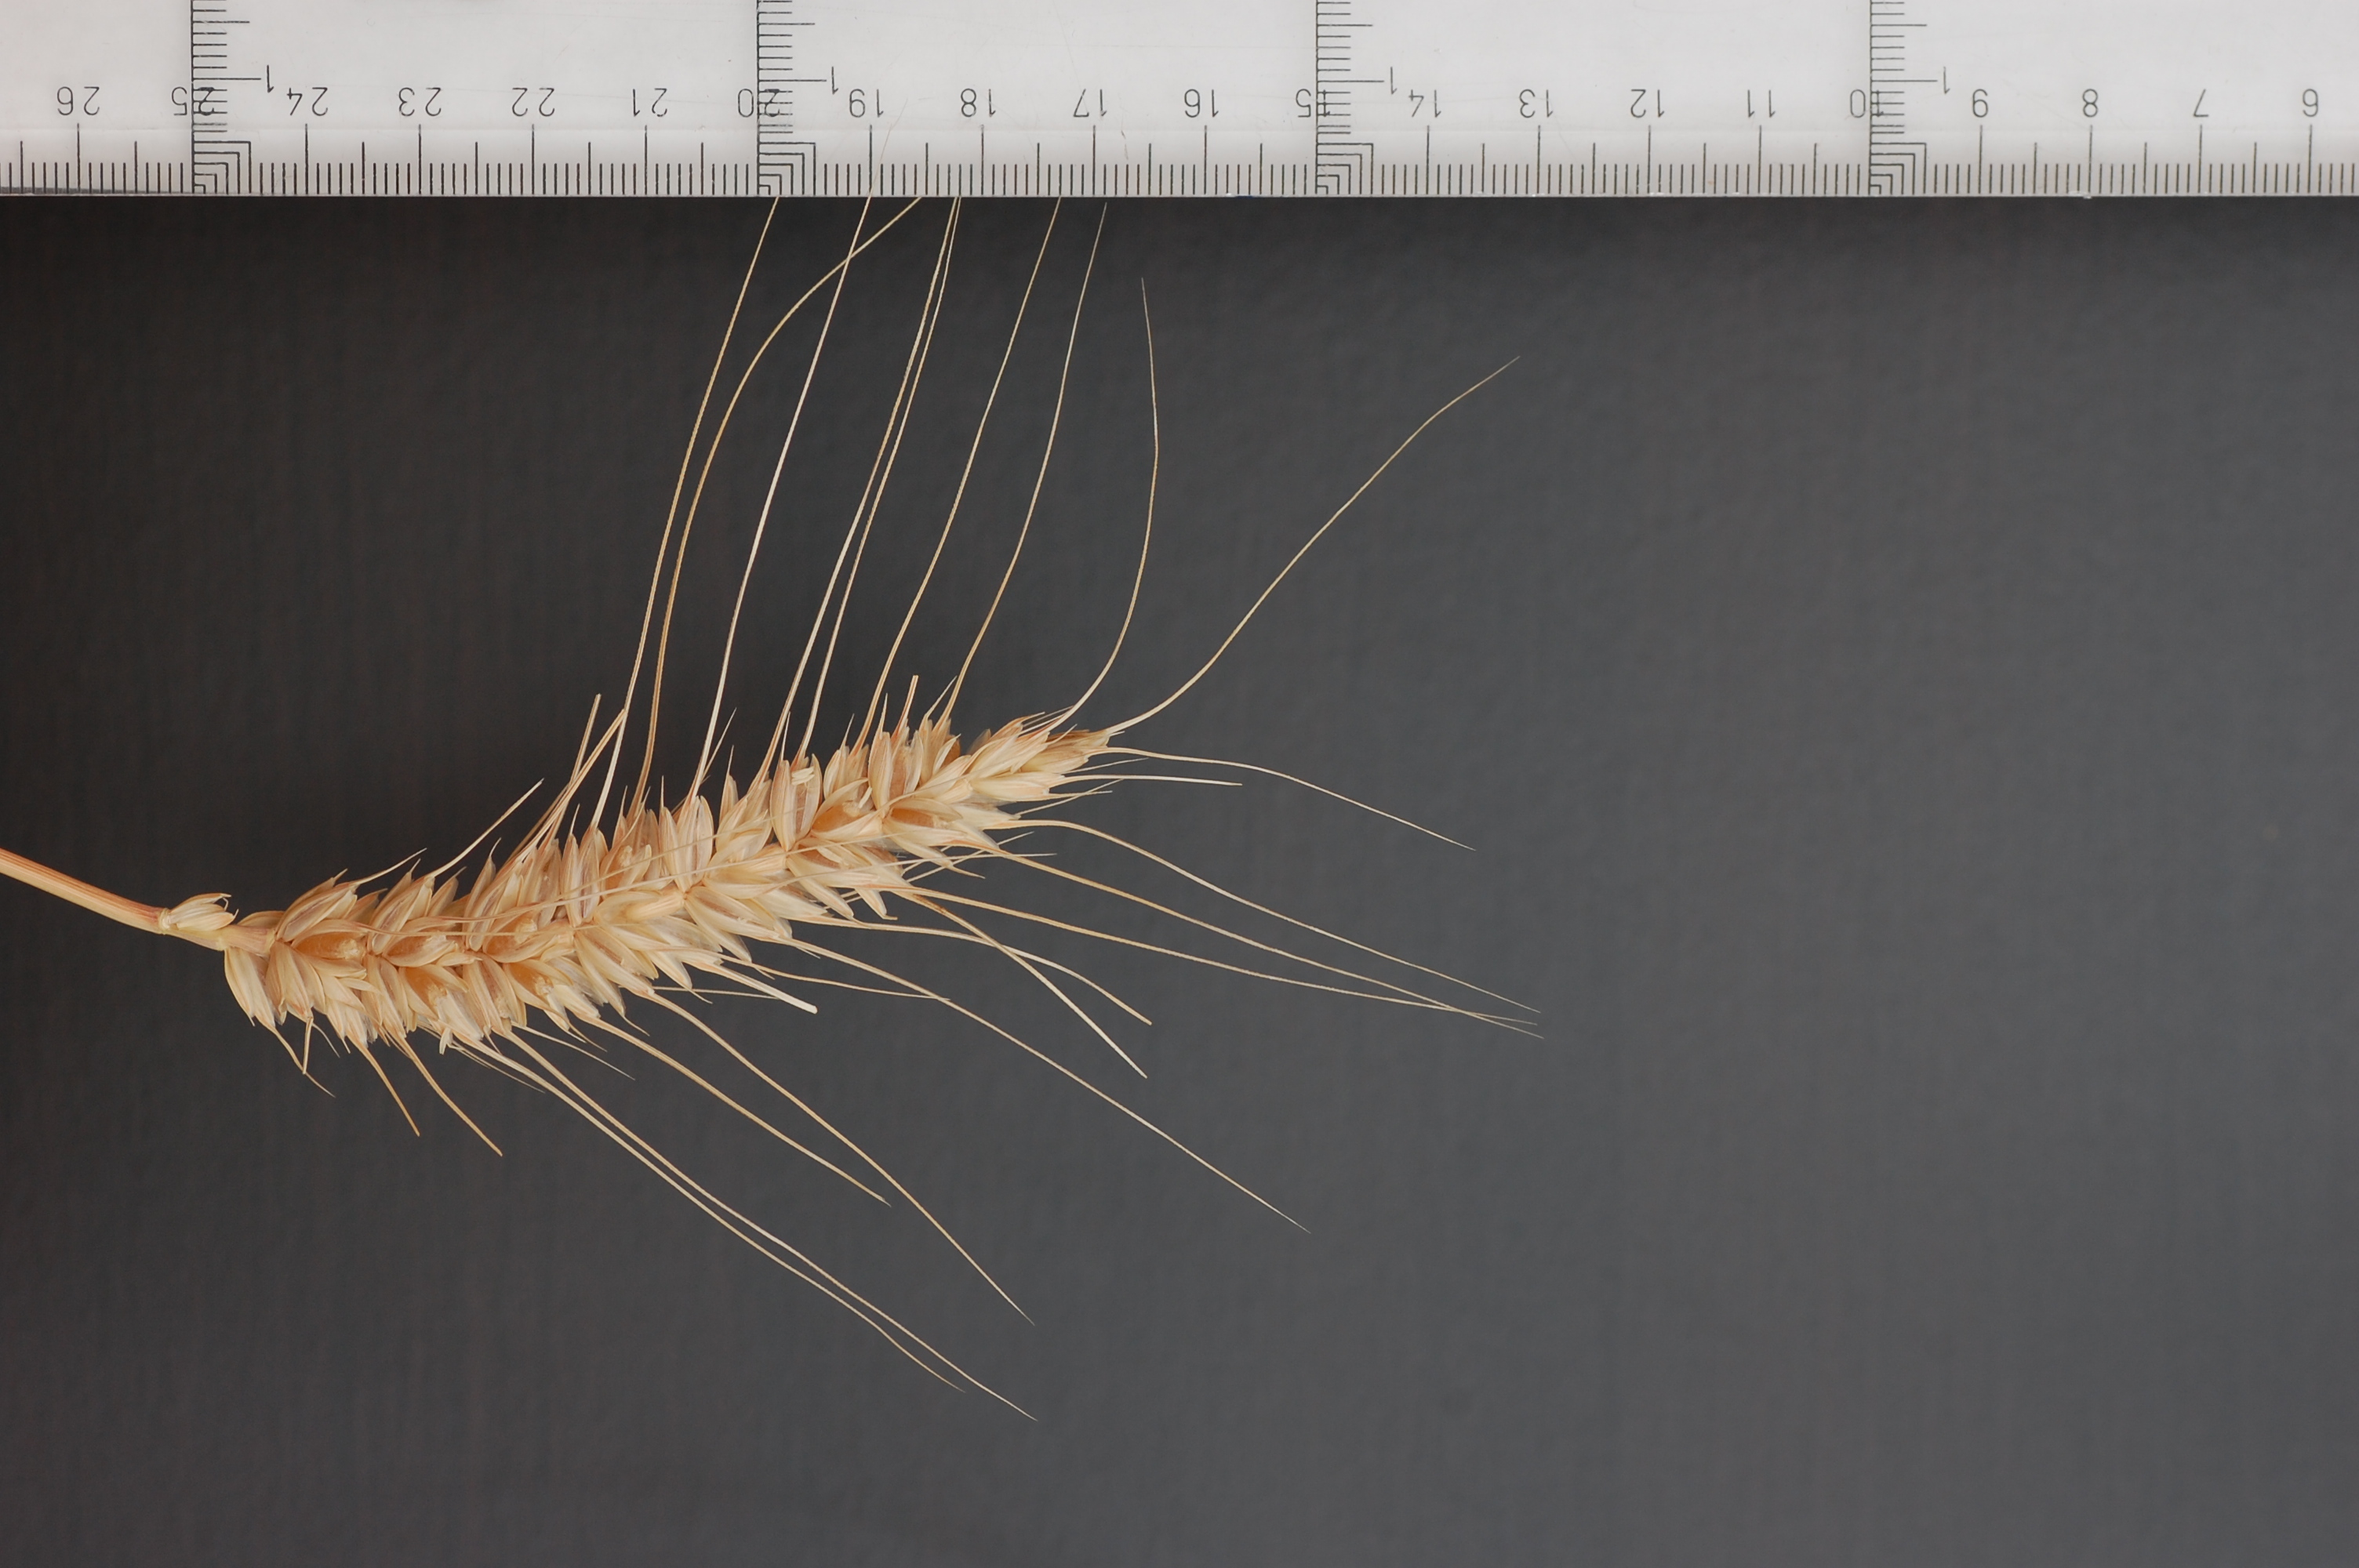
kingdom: Plantae
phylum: Tracheophyta
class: Liliopsida
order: Poales
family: Poaceae
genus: Triticum
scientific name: Triticum aestivum
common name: Common wheat
